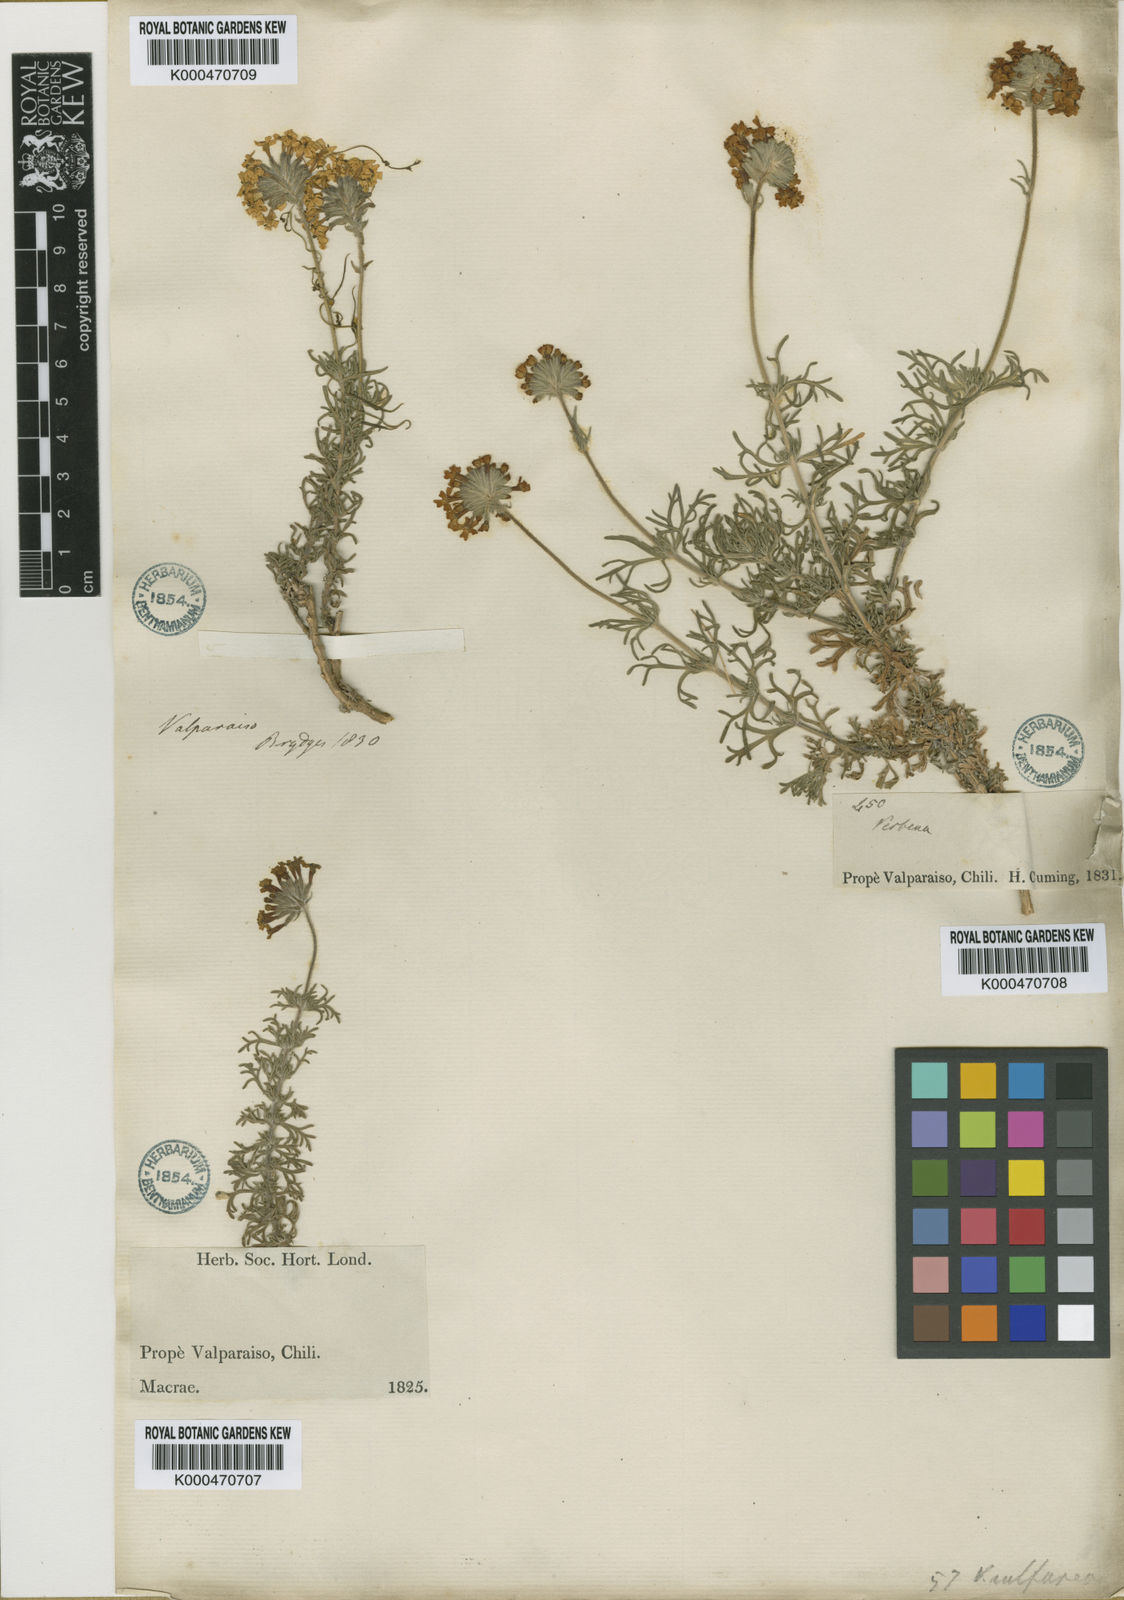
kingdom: Plantae
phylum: Tracheophyta
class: Magnoliopsida
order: Lamiales
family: Verbenaceae
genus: Verbena
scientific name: Verbena sulphurea
